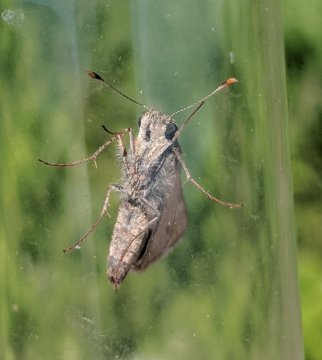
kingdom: Animalia
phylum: Arthropoda
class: Insecta
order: Lepidoptera
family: Hesperiidae
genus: Polites
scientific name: Polites themistocles
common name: Tawny-edged Skipper
